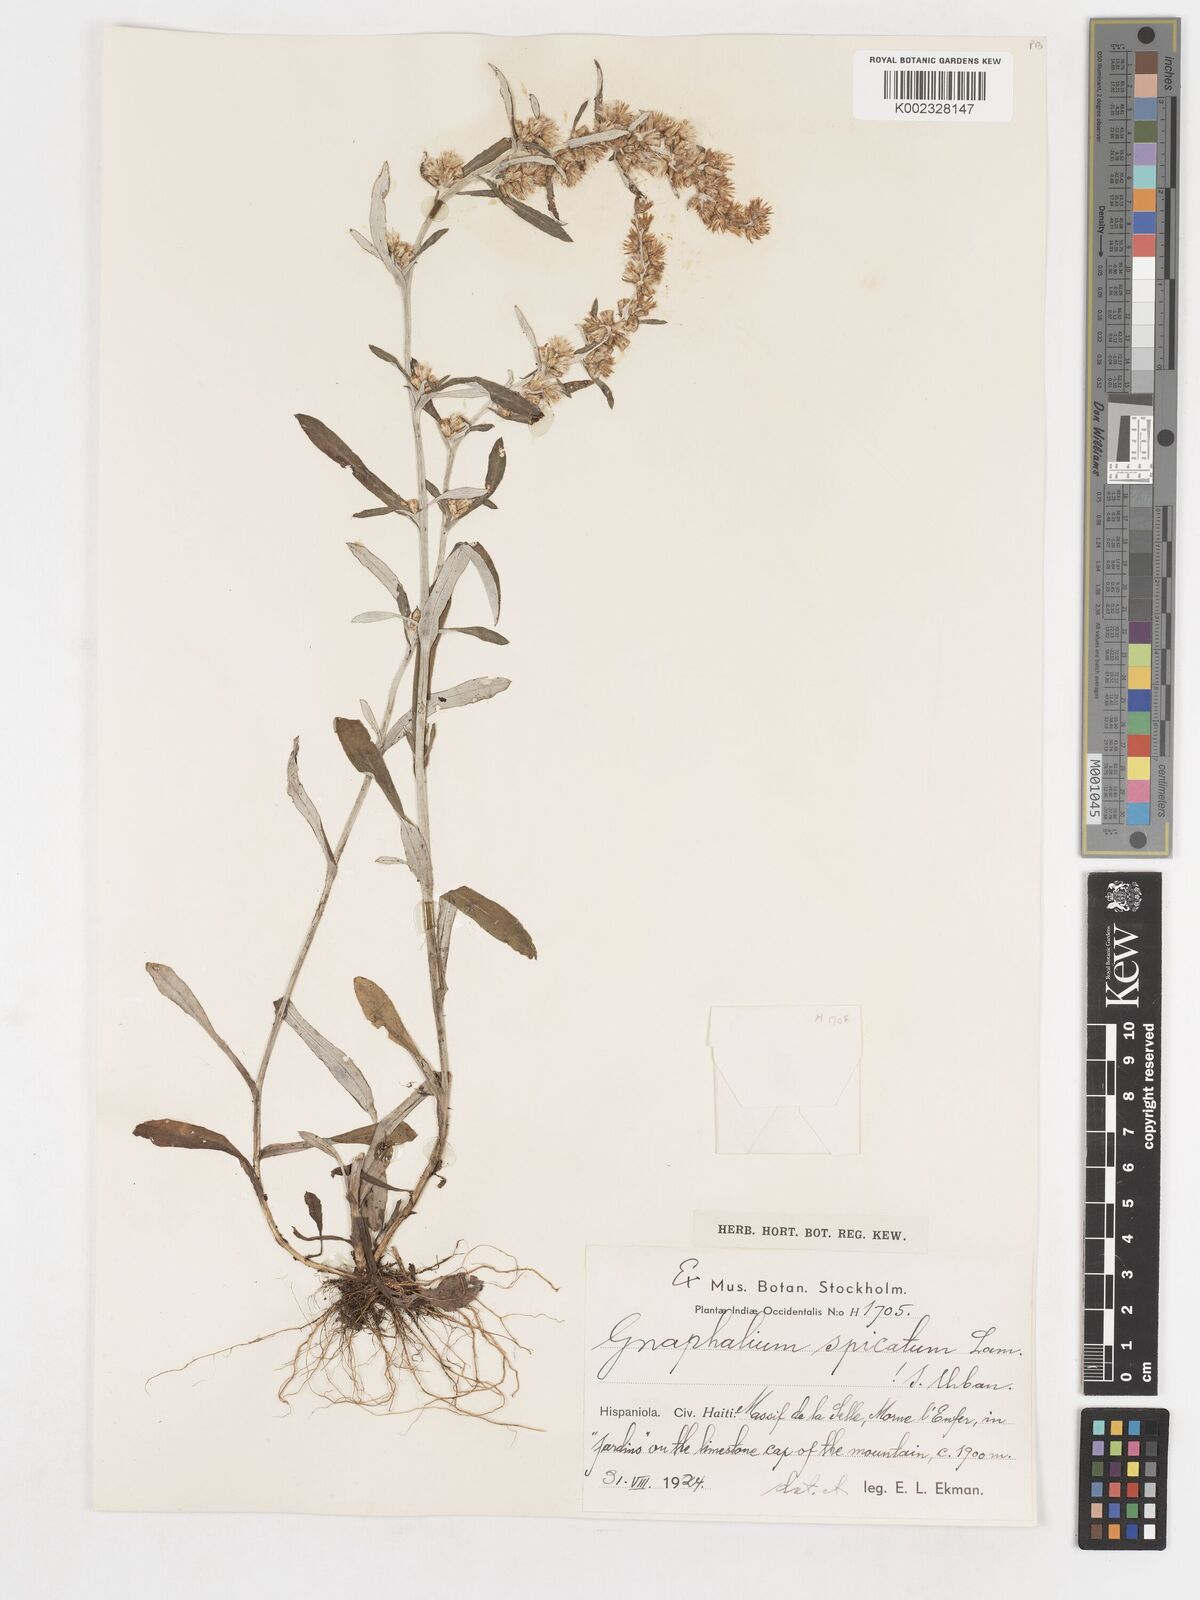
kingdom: Plantae
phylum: Tracheophyta
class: Magnoliopsida
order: Asterales
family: Asteraceae
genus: Gamochaeta
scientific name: Gamochaeta
